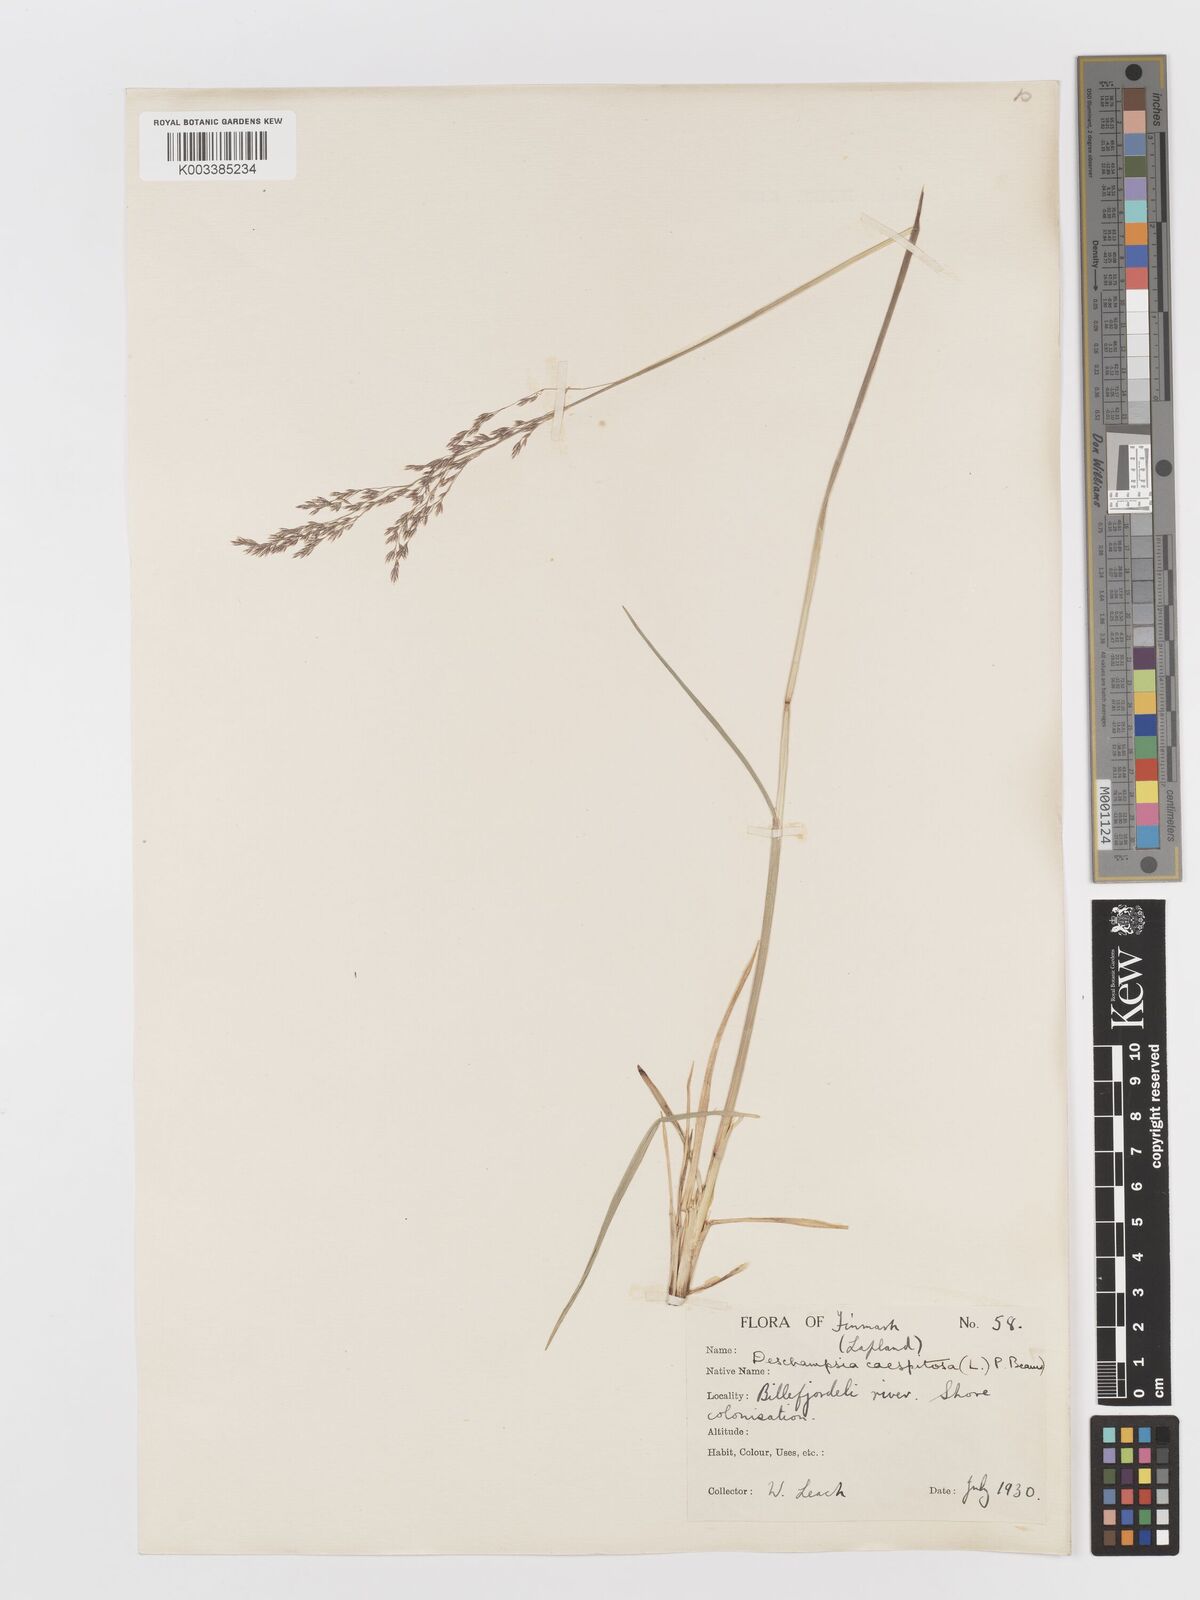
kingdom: Plantae
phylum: Tracheophyta
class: Liliopsida
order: Poales
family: Poaceae
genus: Deschampsia
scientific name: Deschampsia cespitosa
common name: Tufted hair-grass
